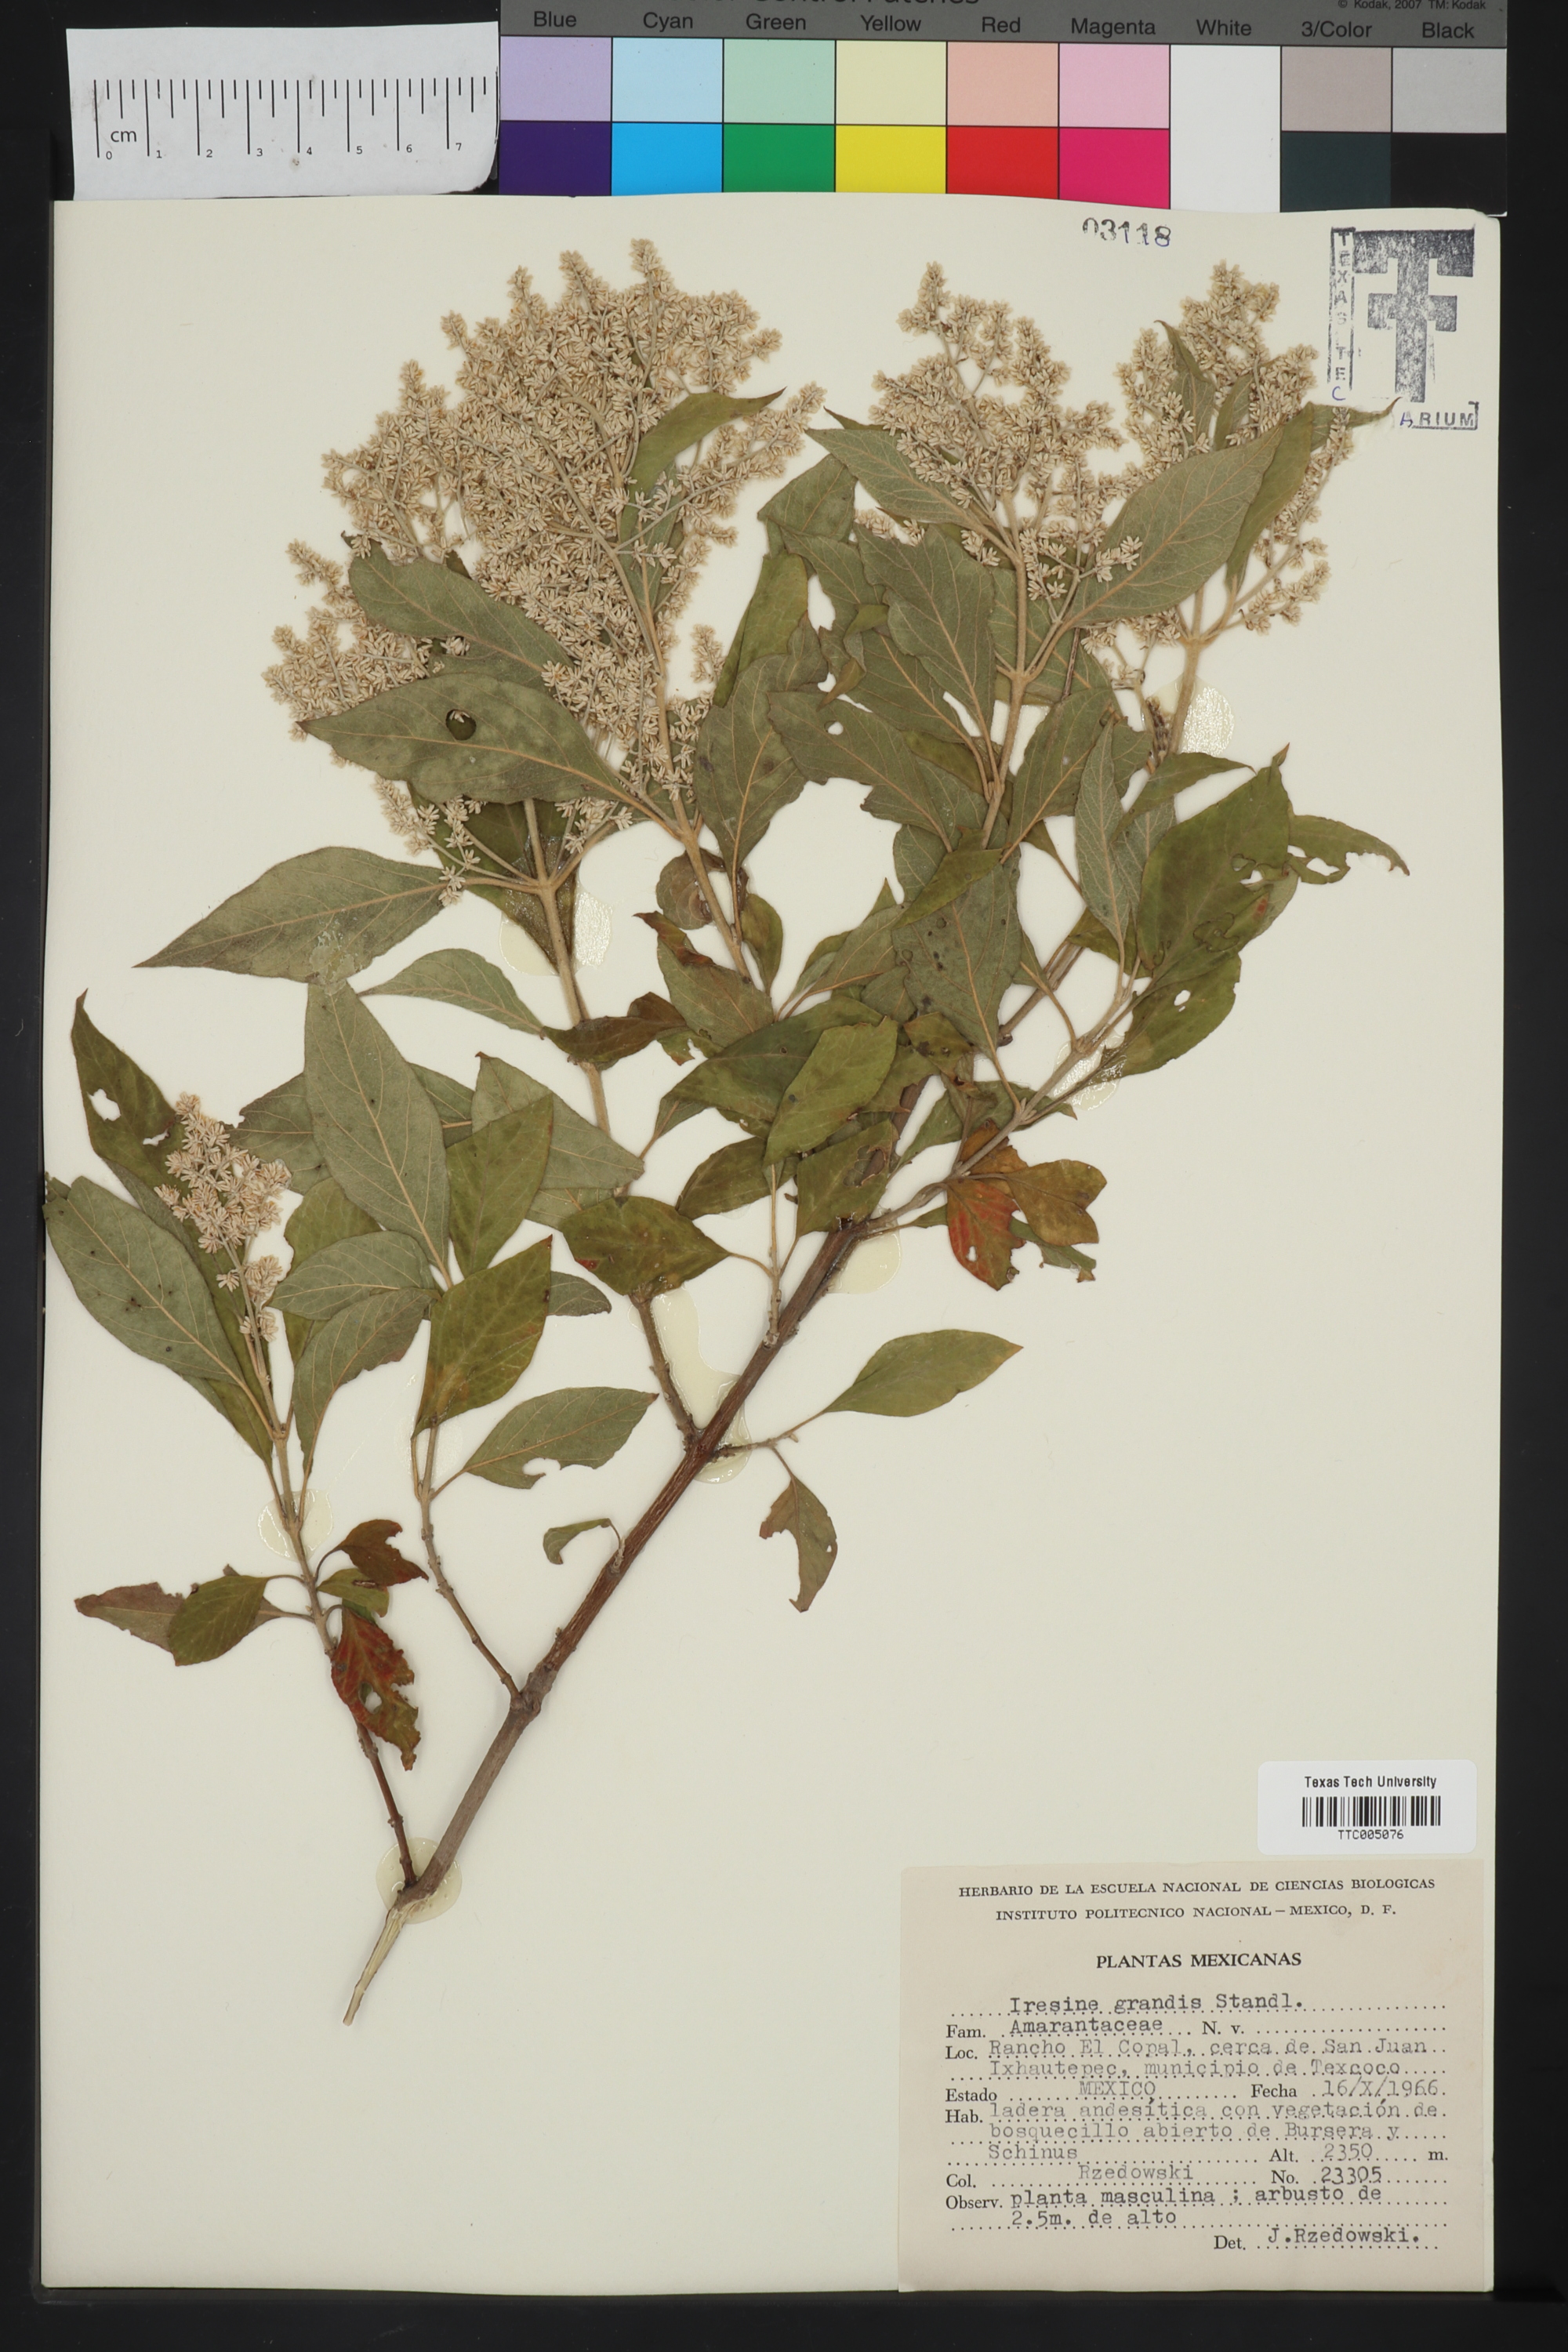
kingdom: Plantae
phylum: Tracheophyta
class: Magnoliopsida
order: Caryophyllales
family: Amaranthaceae
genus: Iresine
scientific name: Iresine cassiniiformis
